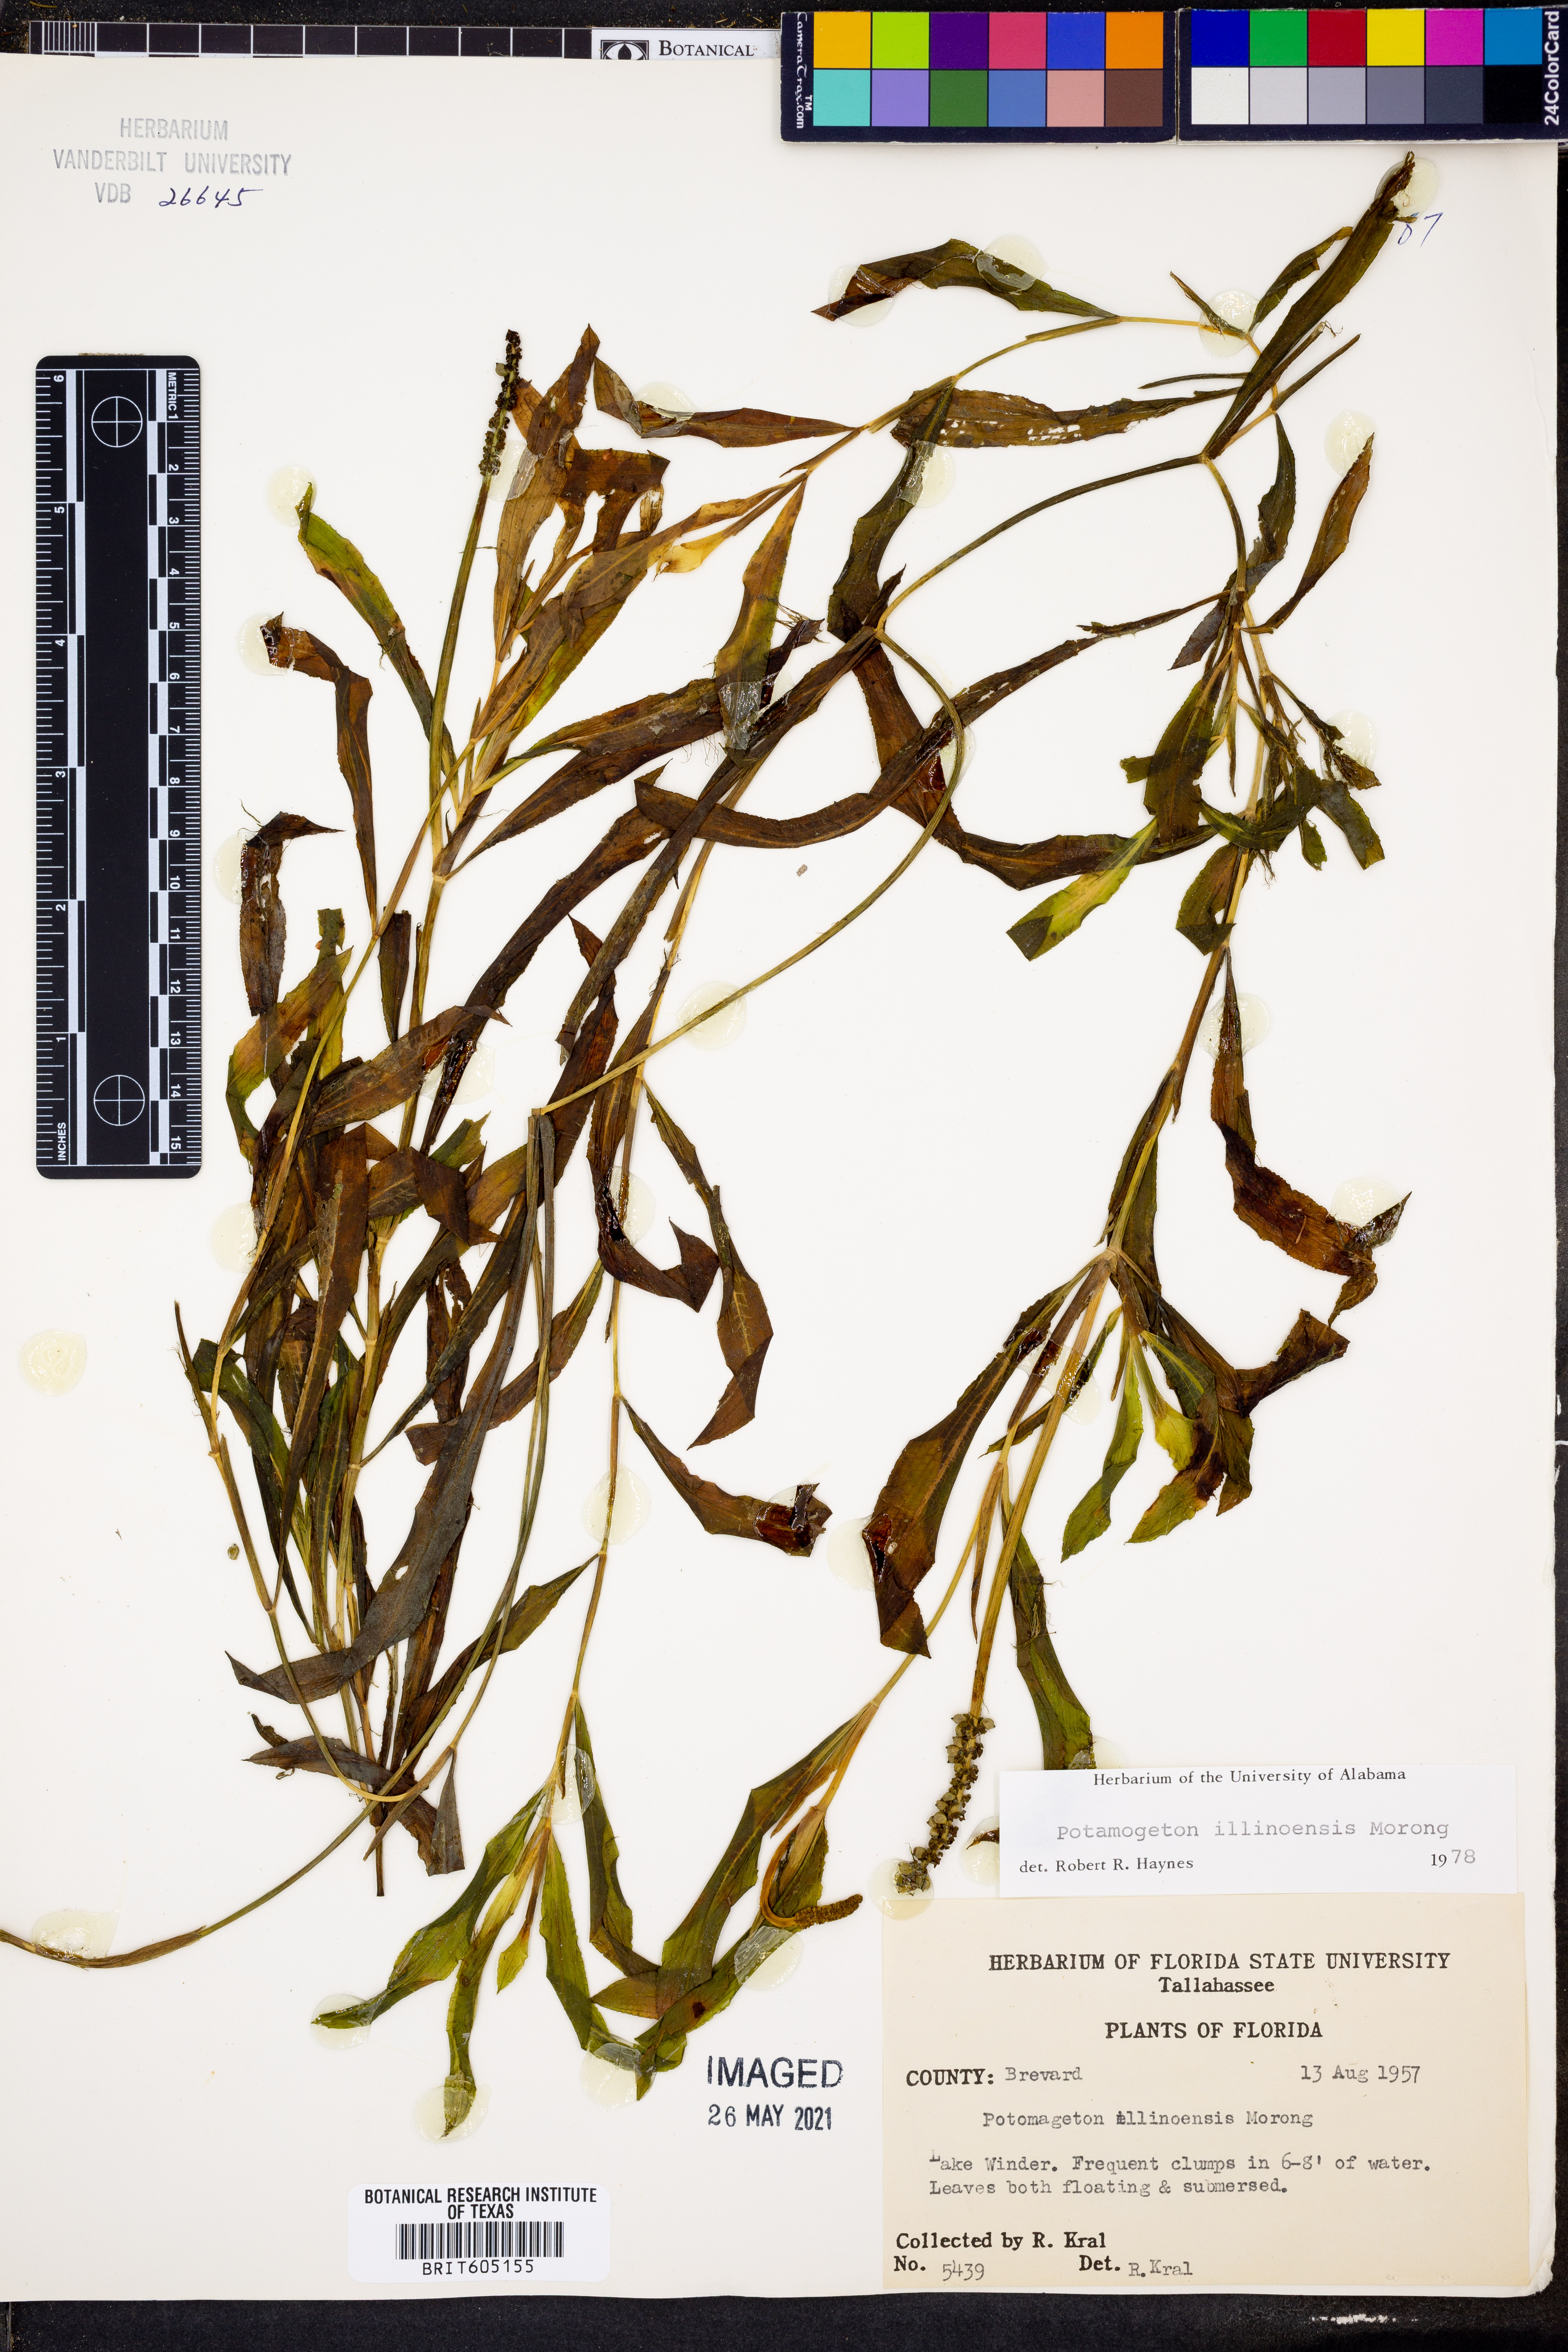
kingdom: Plantae
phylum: Tracheophyta
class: Liliopsida
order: Alismatales
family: Potamogetonaceae
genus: Potamogeton
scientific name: Potamogeton illinoensis
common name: Illinois pondweed
